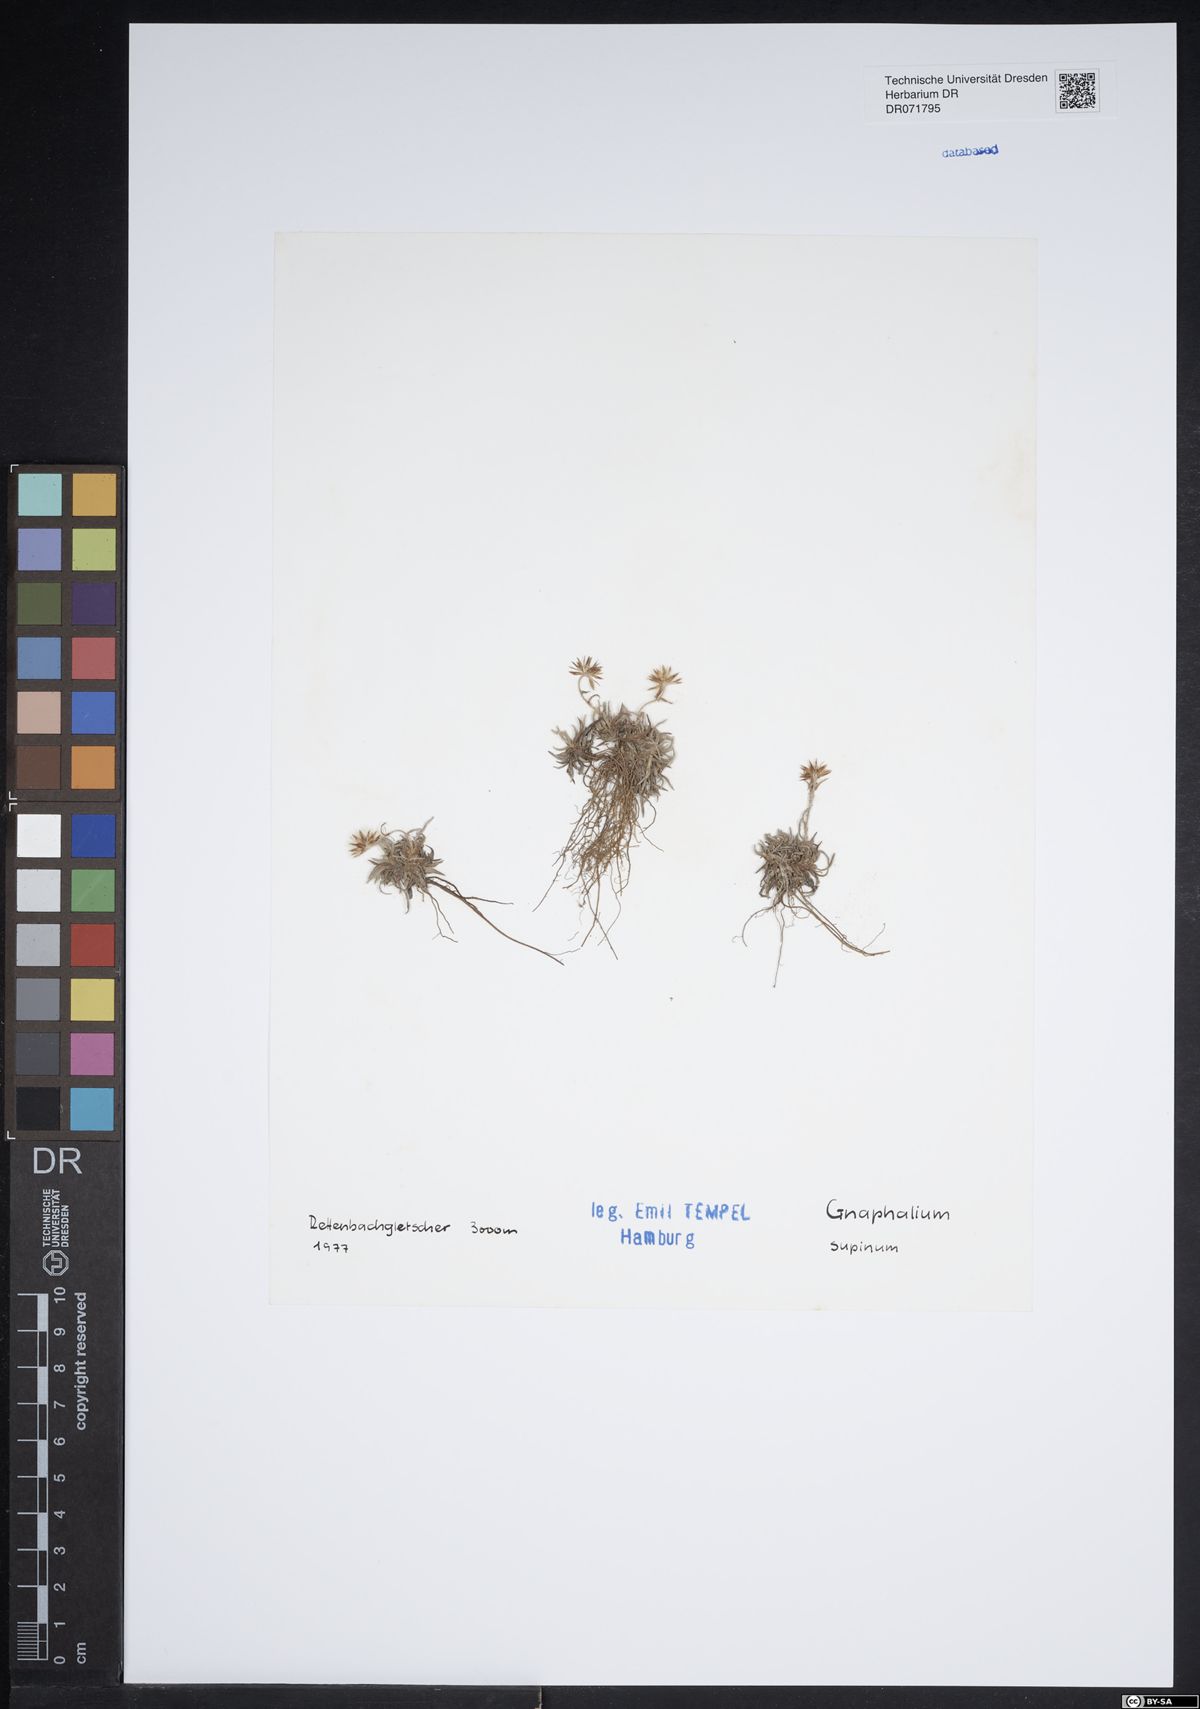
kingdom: Plantae
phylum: Tracheophyta
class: Magnoliopsida
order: Asterales
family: Asteraceae
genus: Omalotheca
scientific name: Omalotheca supina
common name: Alpine arctic-cudweed
